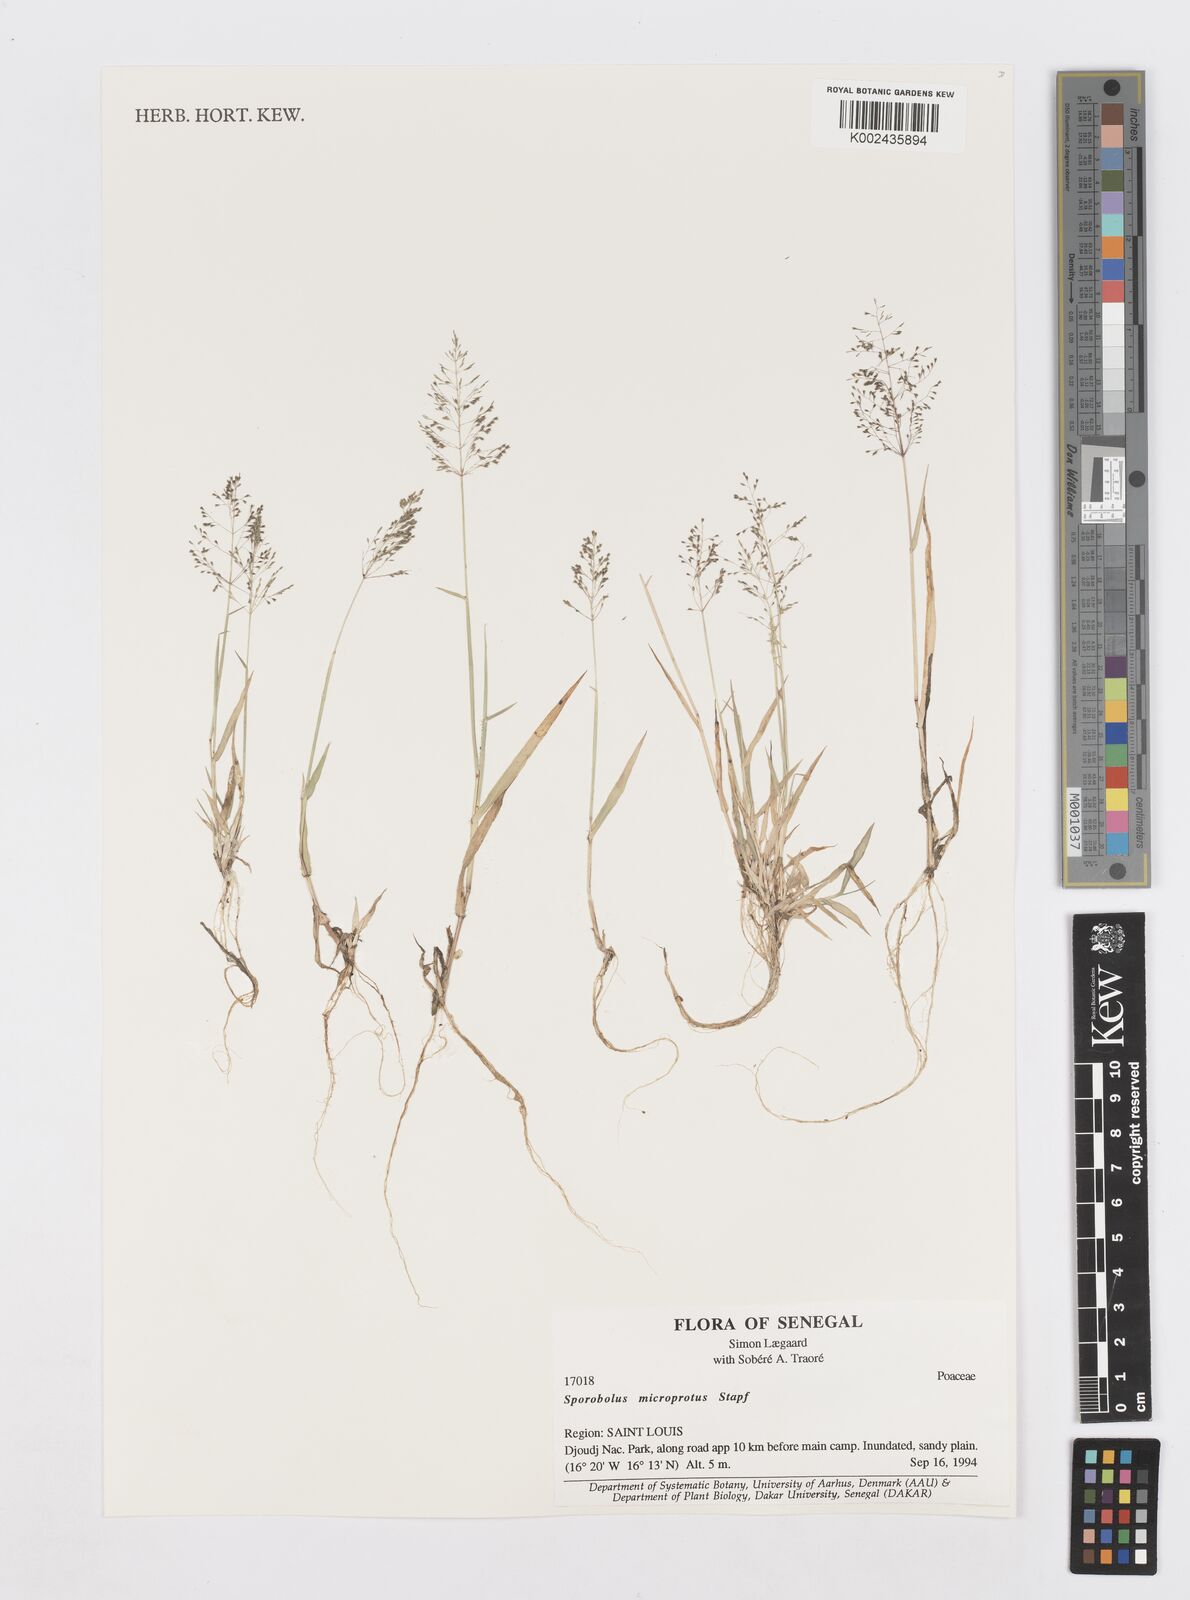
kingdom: Plantae
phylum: Tracheophyta
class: Liliopsida
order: Poales
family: Poaceae
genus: Sporobolus
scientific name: Sporobolus microprotus
